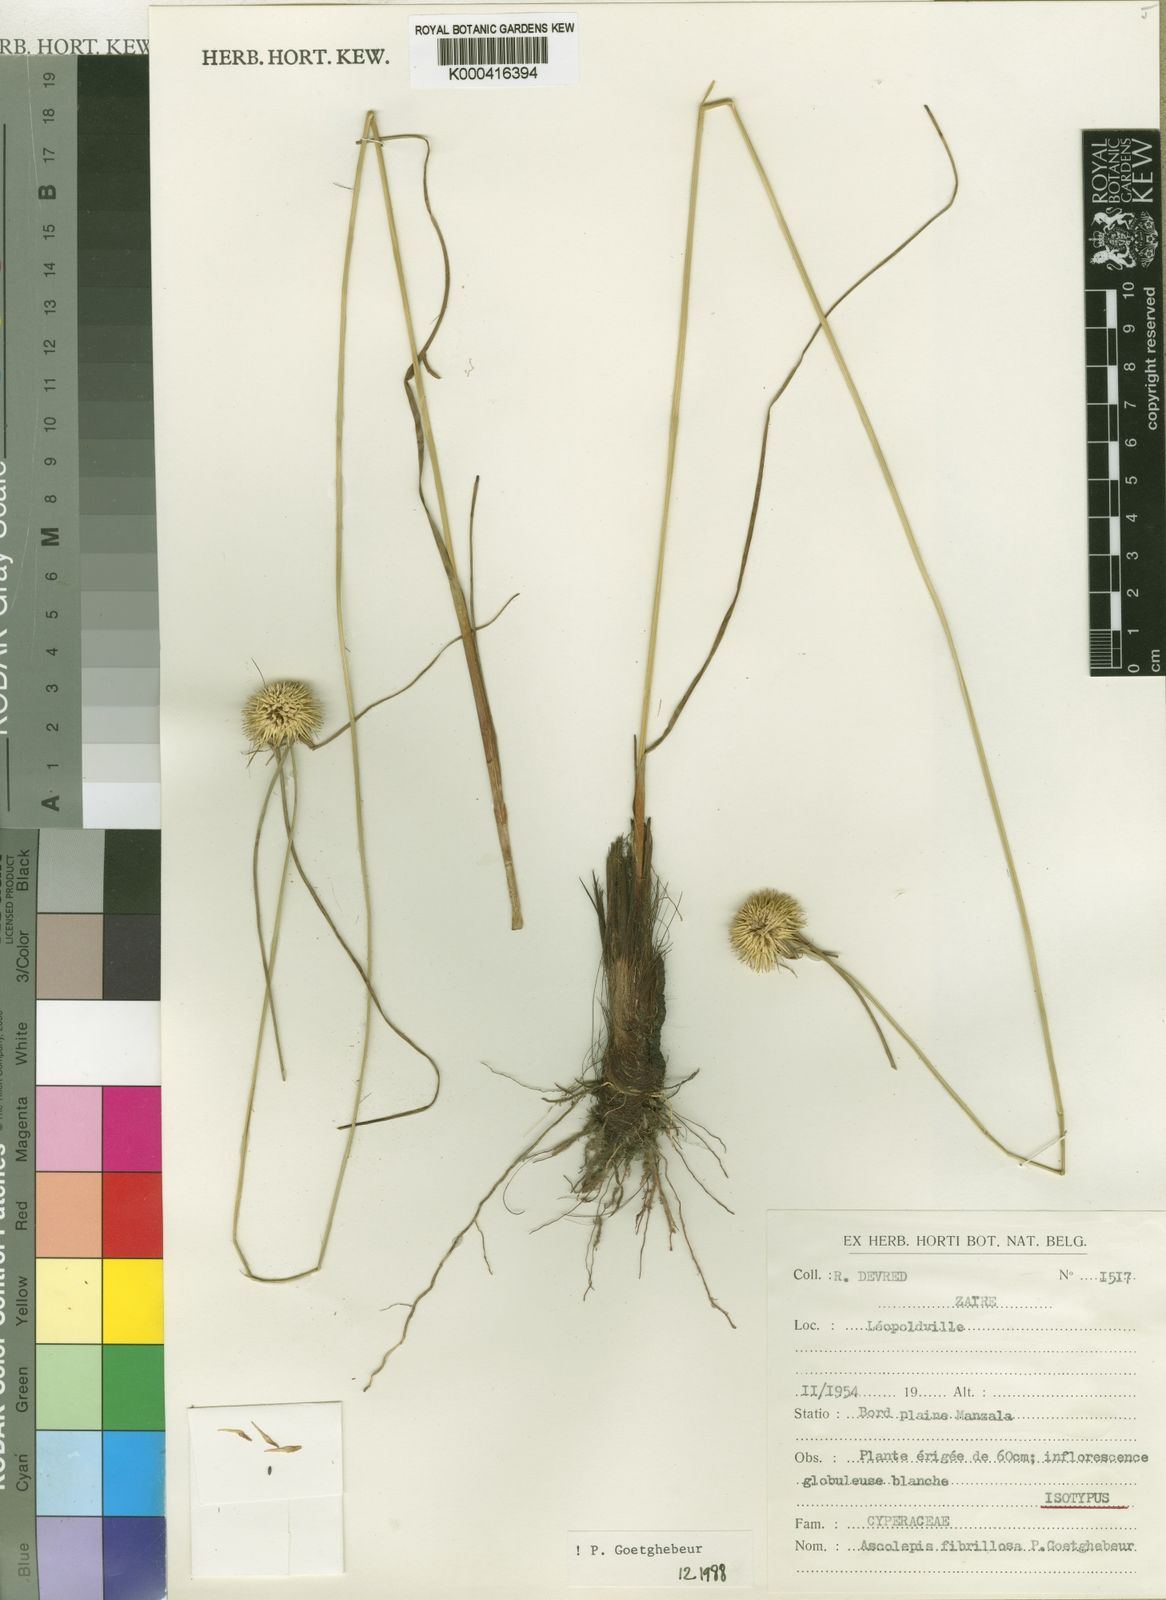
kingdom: Plantae
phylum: Tracheophyta
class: Liliopsida
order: Poales
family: Cyperaceae
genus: Cyperus
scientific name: Cyperus ascofibrillosus
